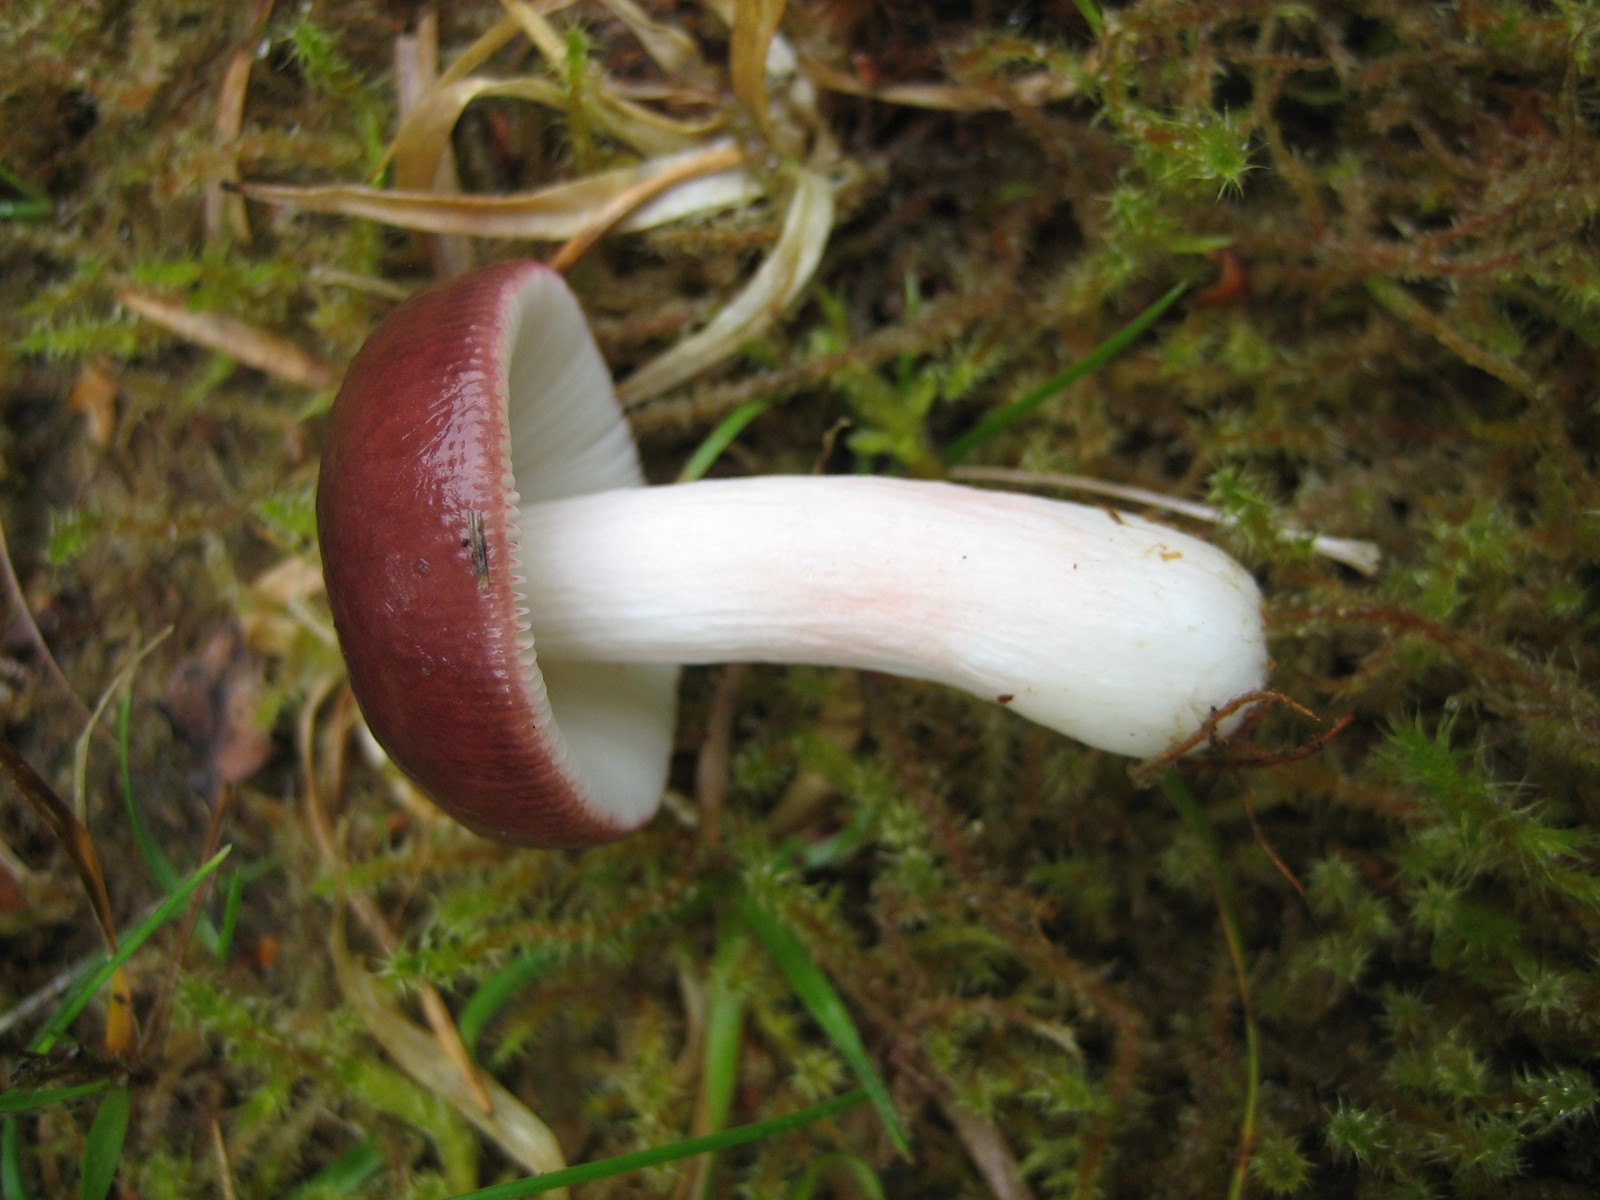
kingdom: Fungi
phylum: Basidiomycota
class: Agaricomycetes
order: Russulales
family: Russulaceae
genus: Russula
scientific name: Russula
